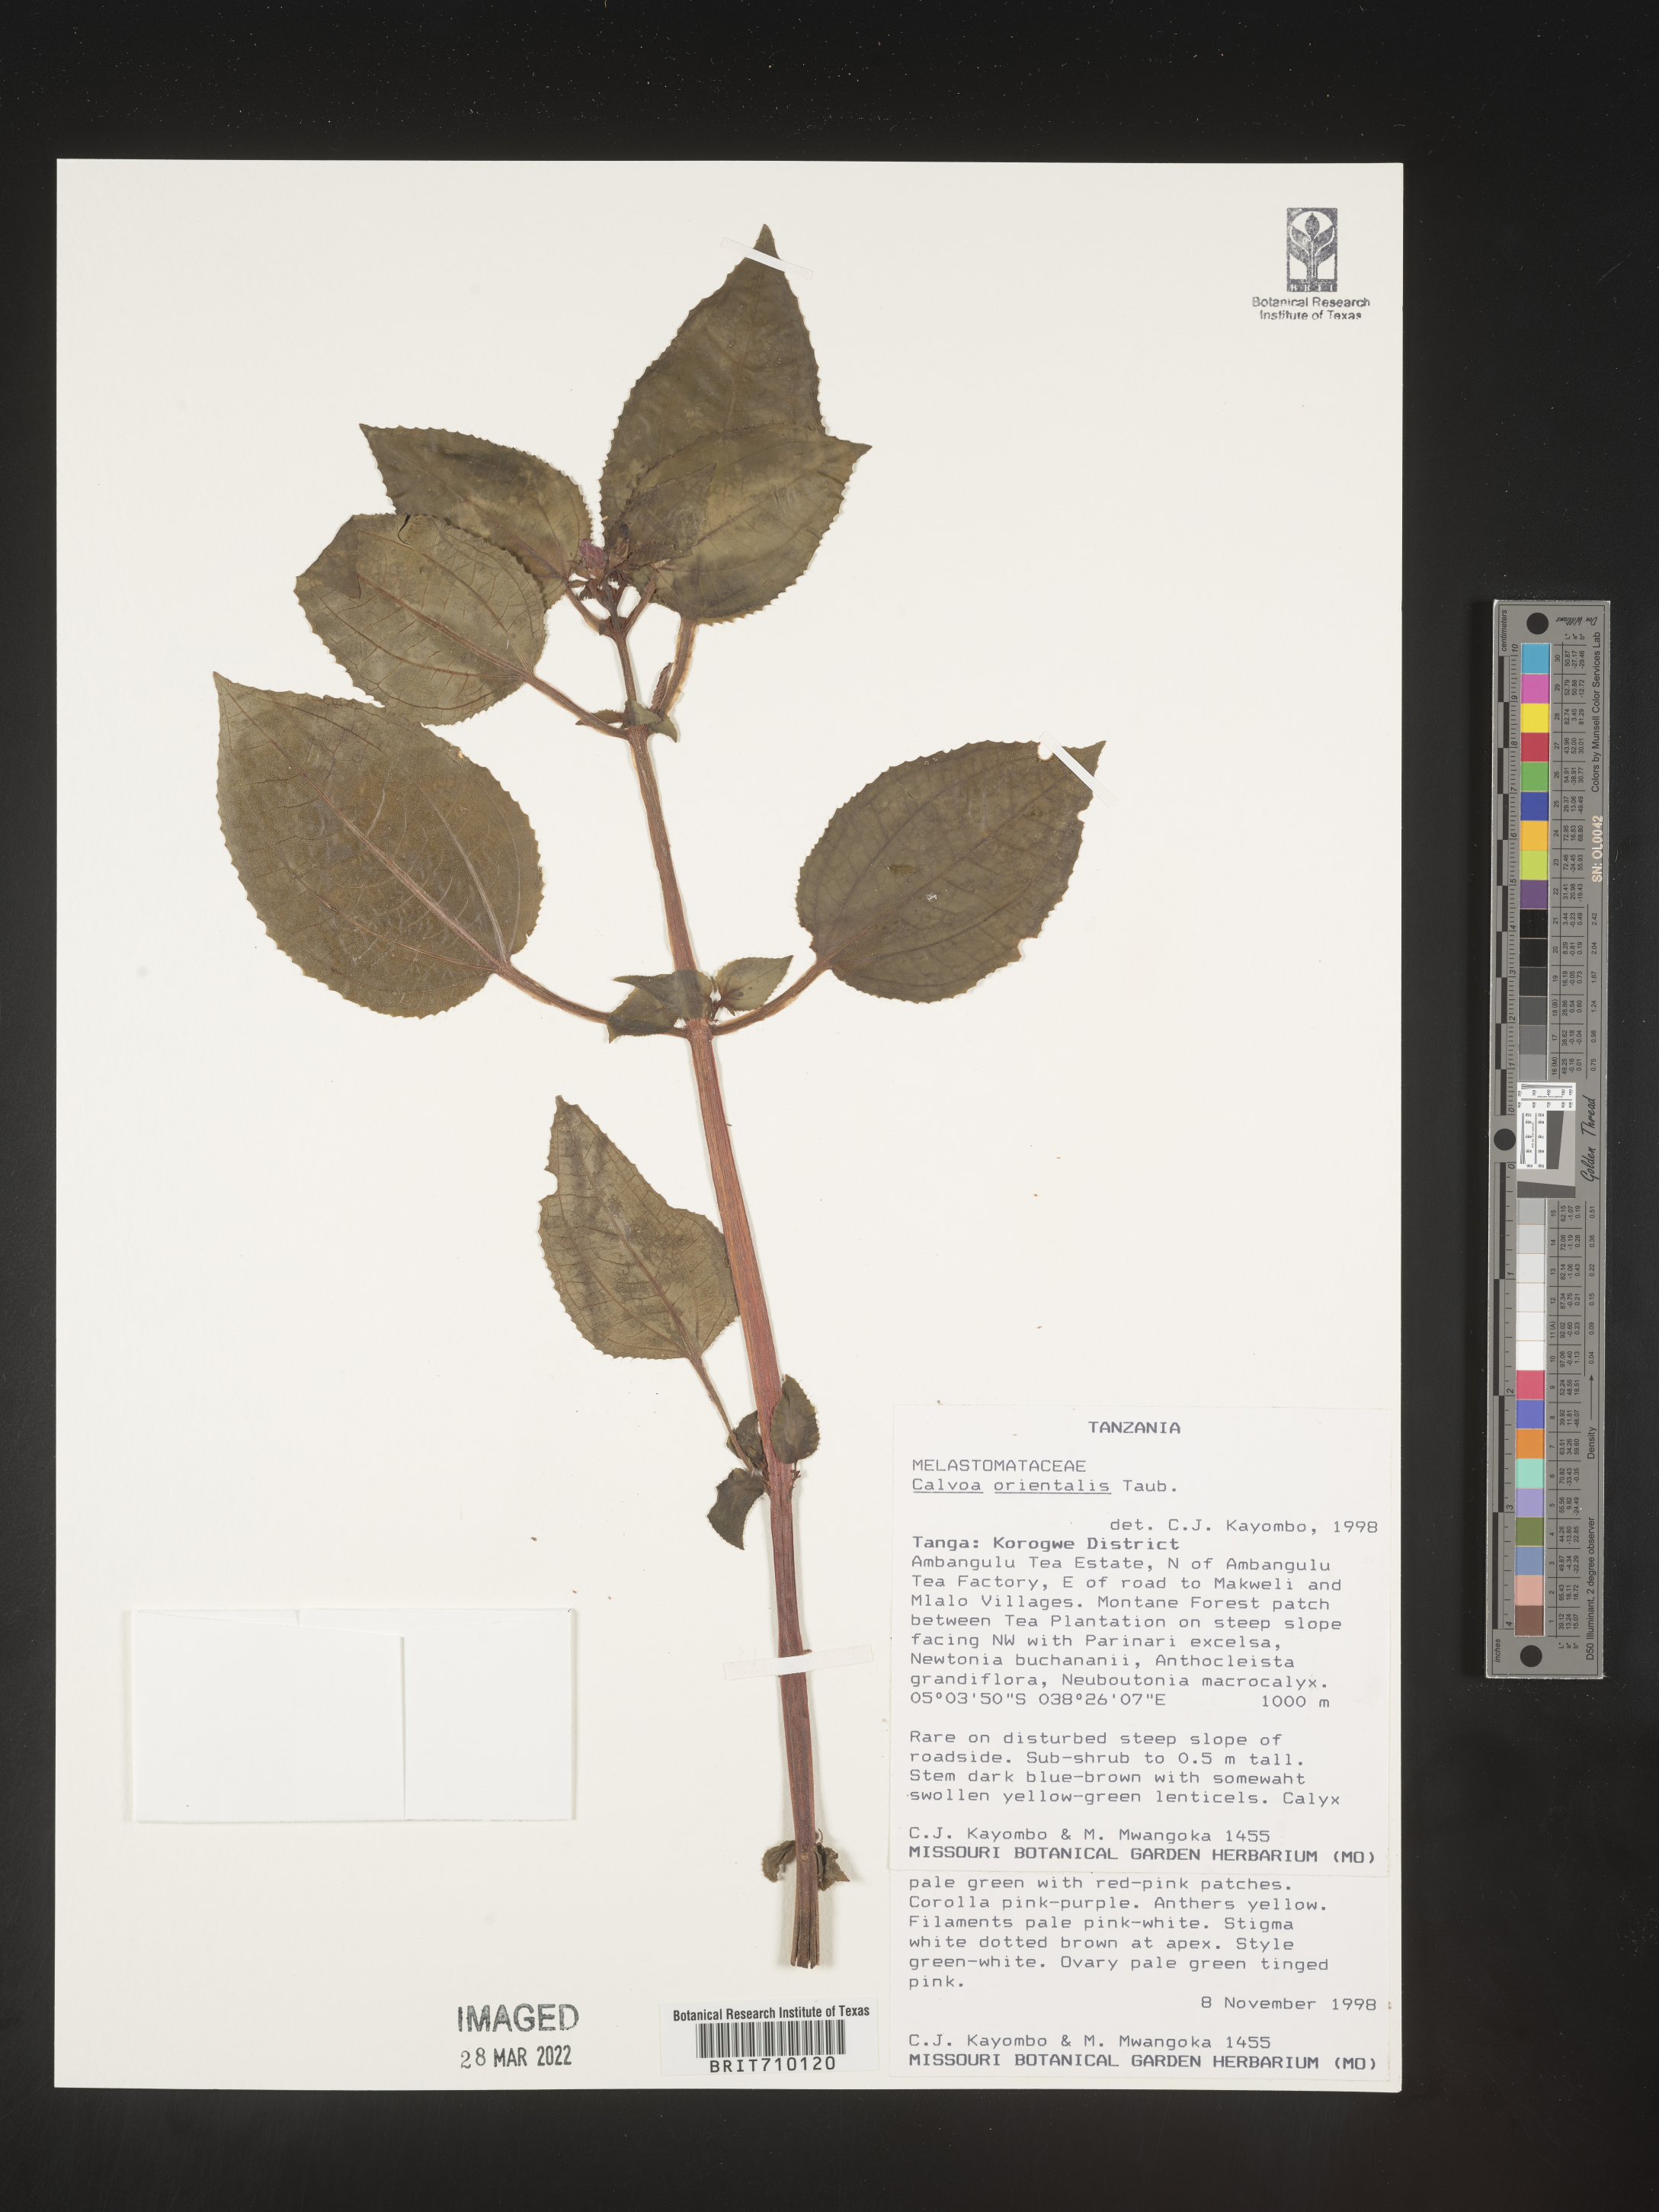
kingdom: Plantae
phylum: Tracheophyta
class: Magnoliopsida
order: Myrtales
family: Melastomataceae
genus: Calvoa
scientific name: Calvoa
